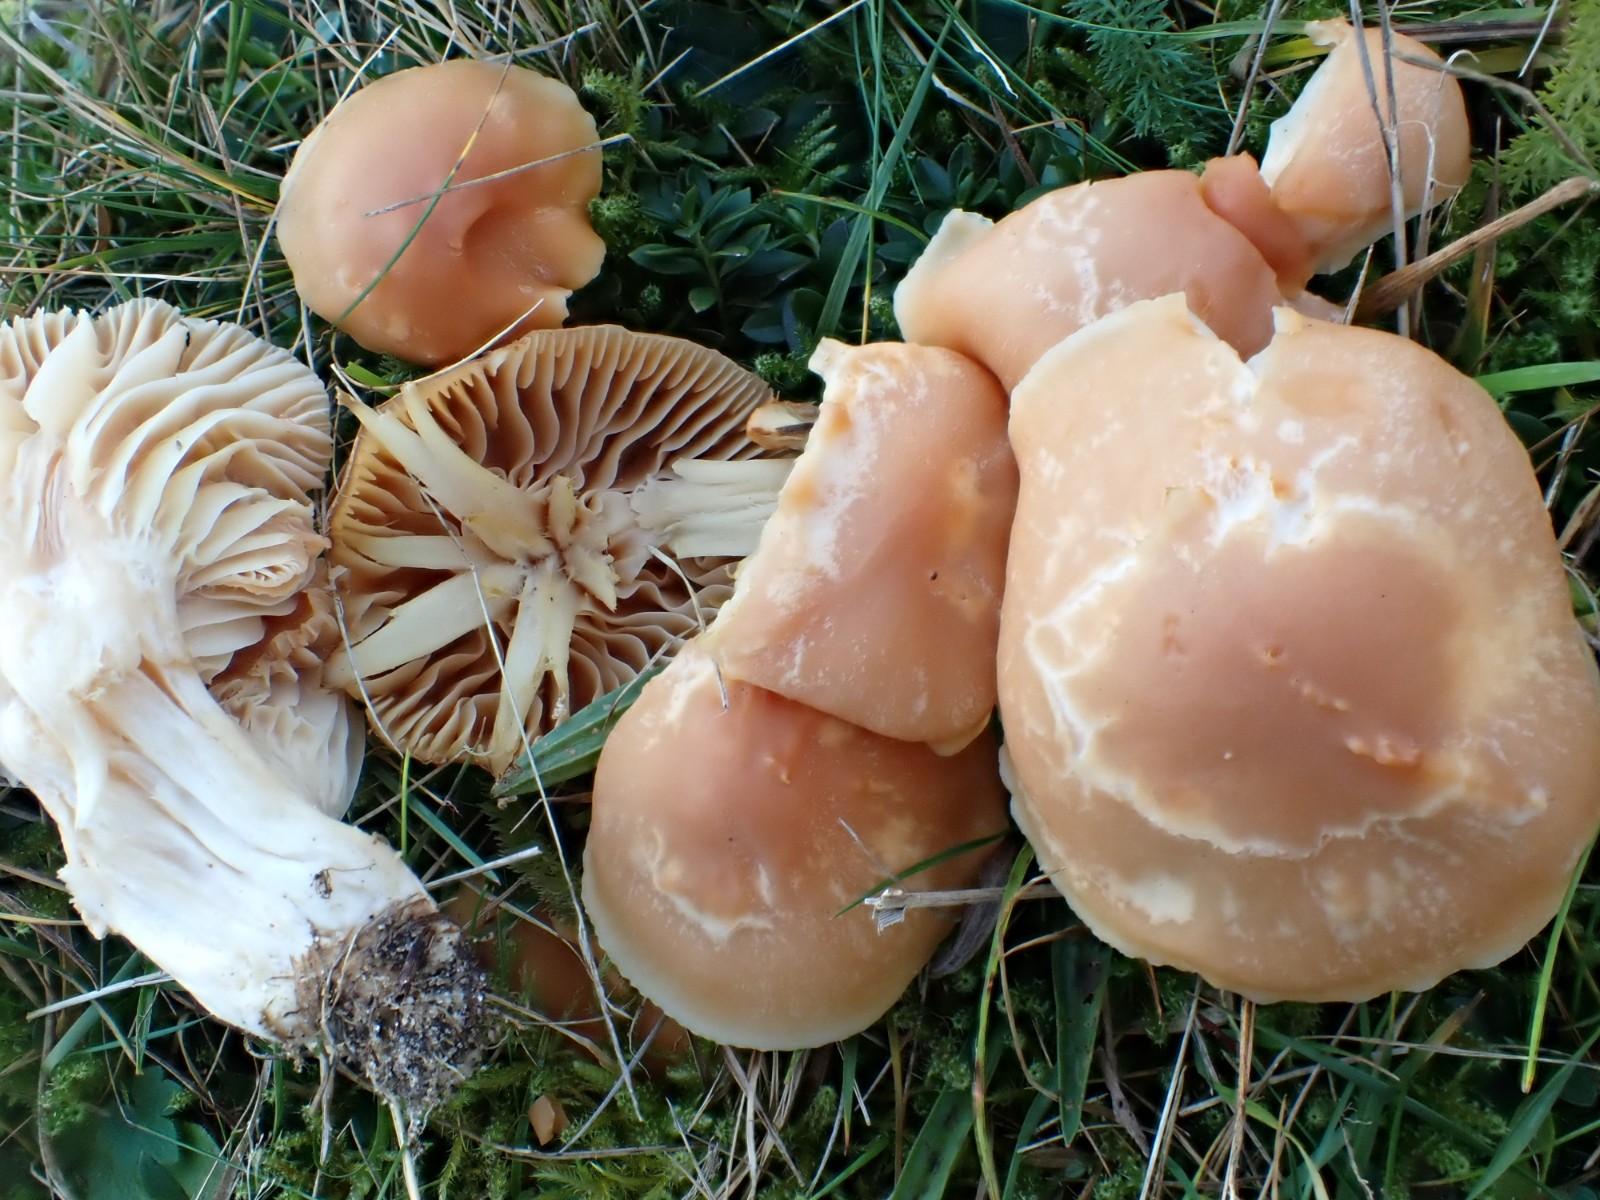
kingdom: Fungi
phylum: Basidiomycota
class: Agaricomycetes
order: Agaricales
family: Hygrophoraceae
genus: Cuphophyllus
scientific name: Cuphophyllus pratensis
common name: eng-vokshat
